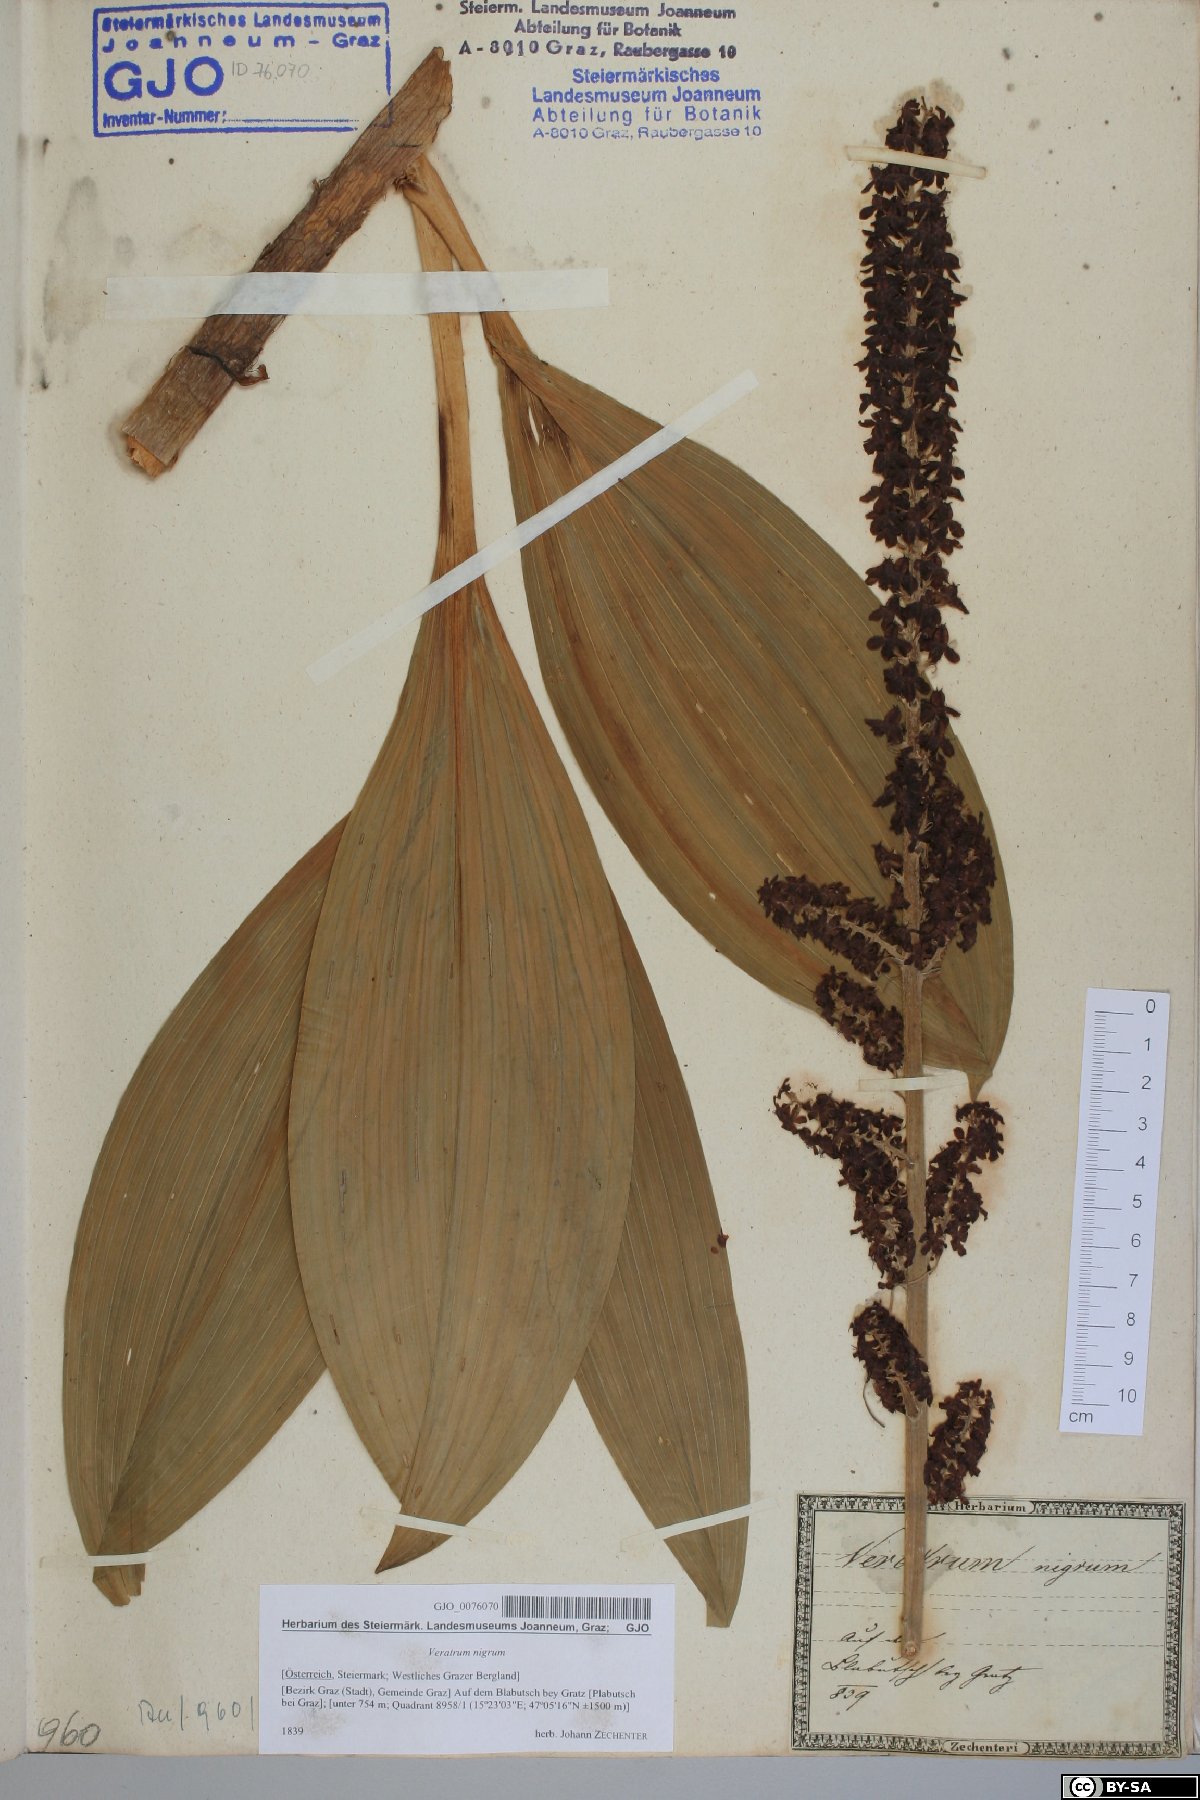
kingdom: Plantae
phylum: Tracheophyta
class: Liliopsida
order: Liliales
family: Melanthiaceae
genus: Veratrum
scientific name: Veratrum nigrum
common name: Black veratrum
